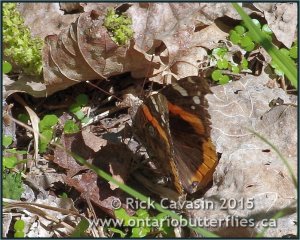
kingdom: Animalia
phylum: Arthropoda
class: Insecta
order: Lepidoptera
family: Nymphalidae
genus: Vanessa
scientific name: Vanessa atalanta
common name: Red Admiral
